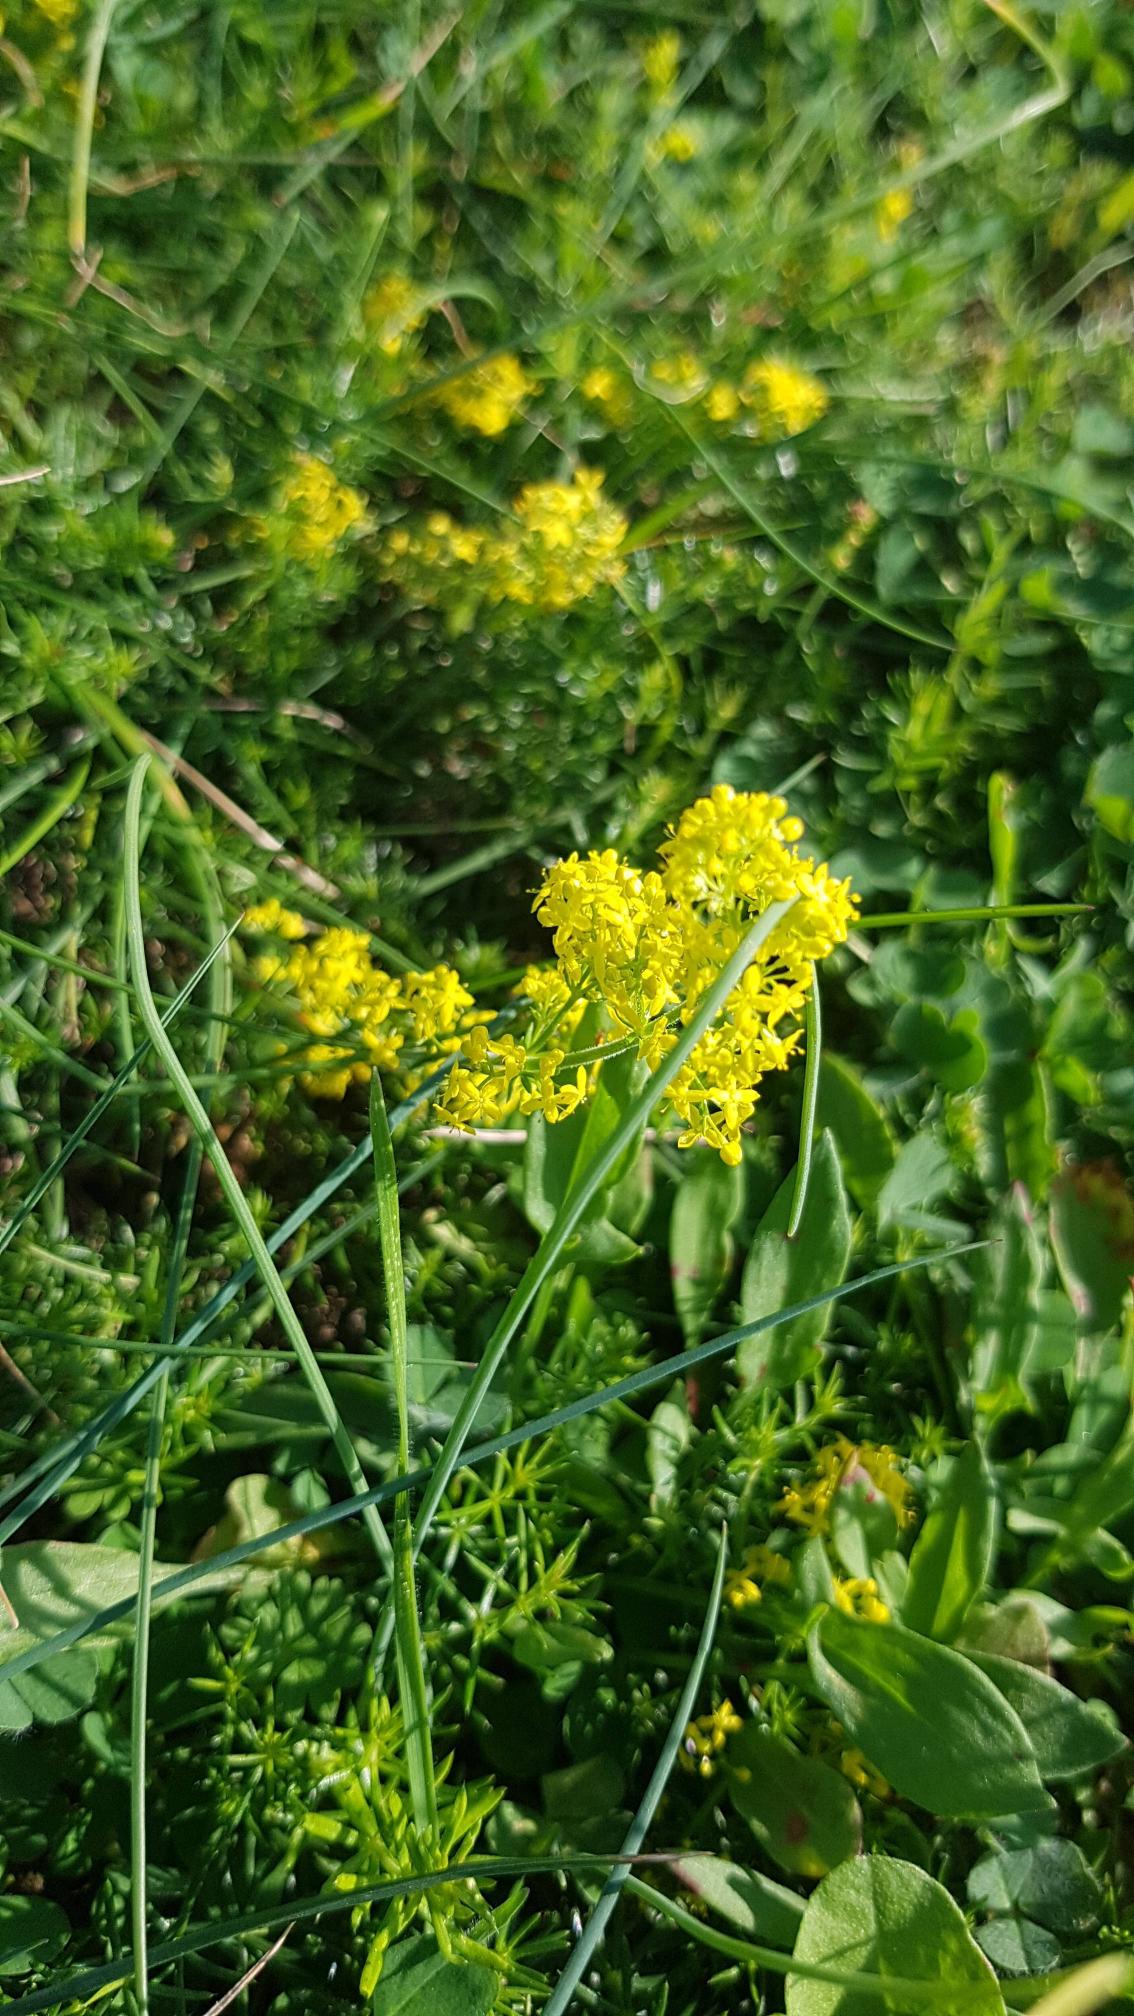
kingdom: Plantae
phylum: Tracheophyta
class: Magnoliopsida
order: Gentianales
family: Rubiaceae
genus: Galium
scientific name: Galium verum
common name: Gul snerre
